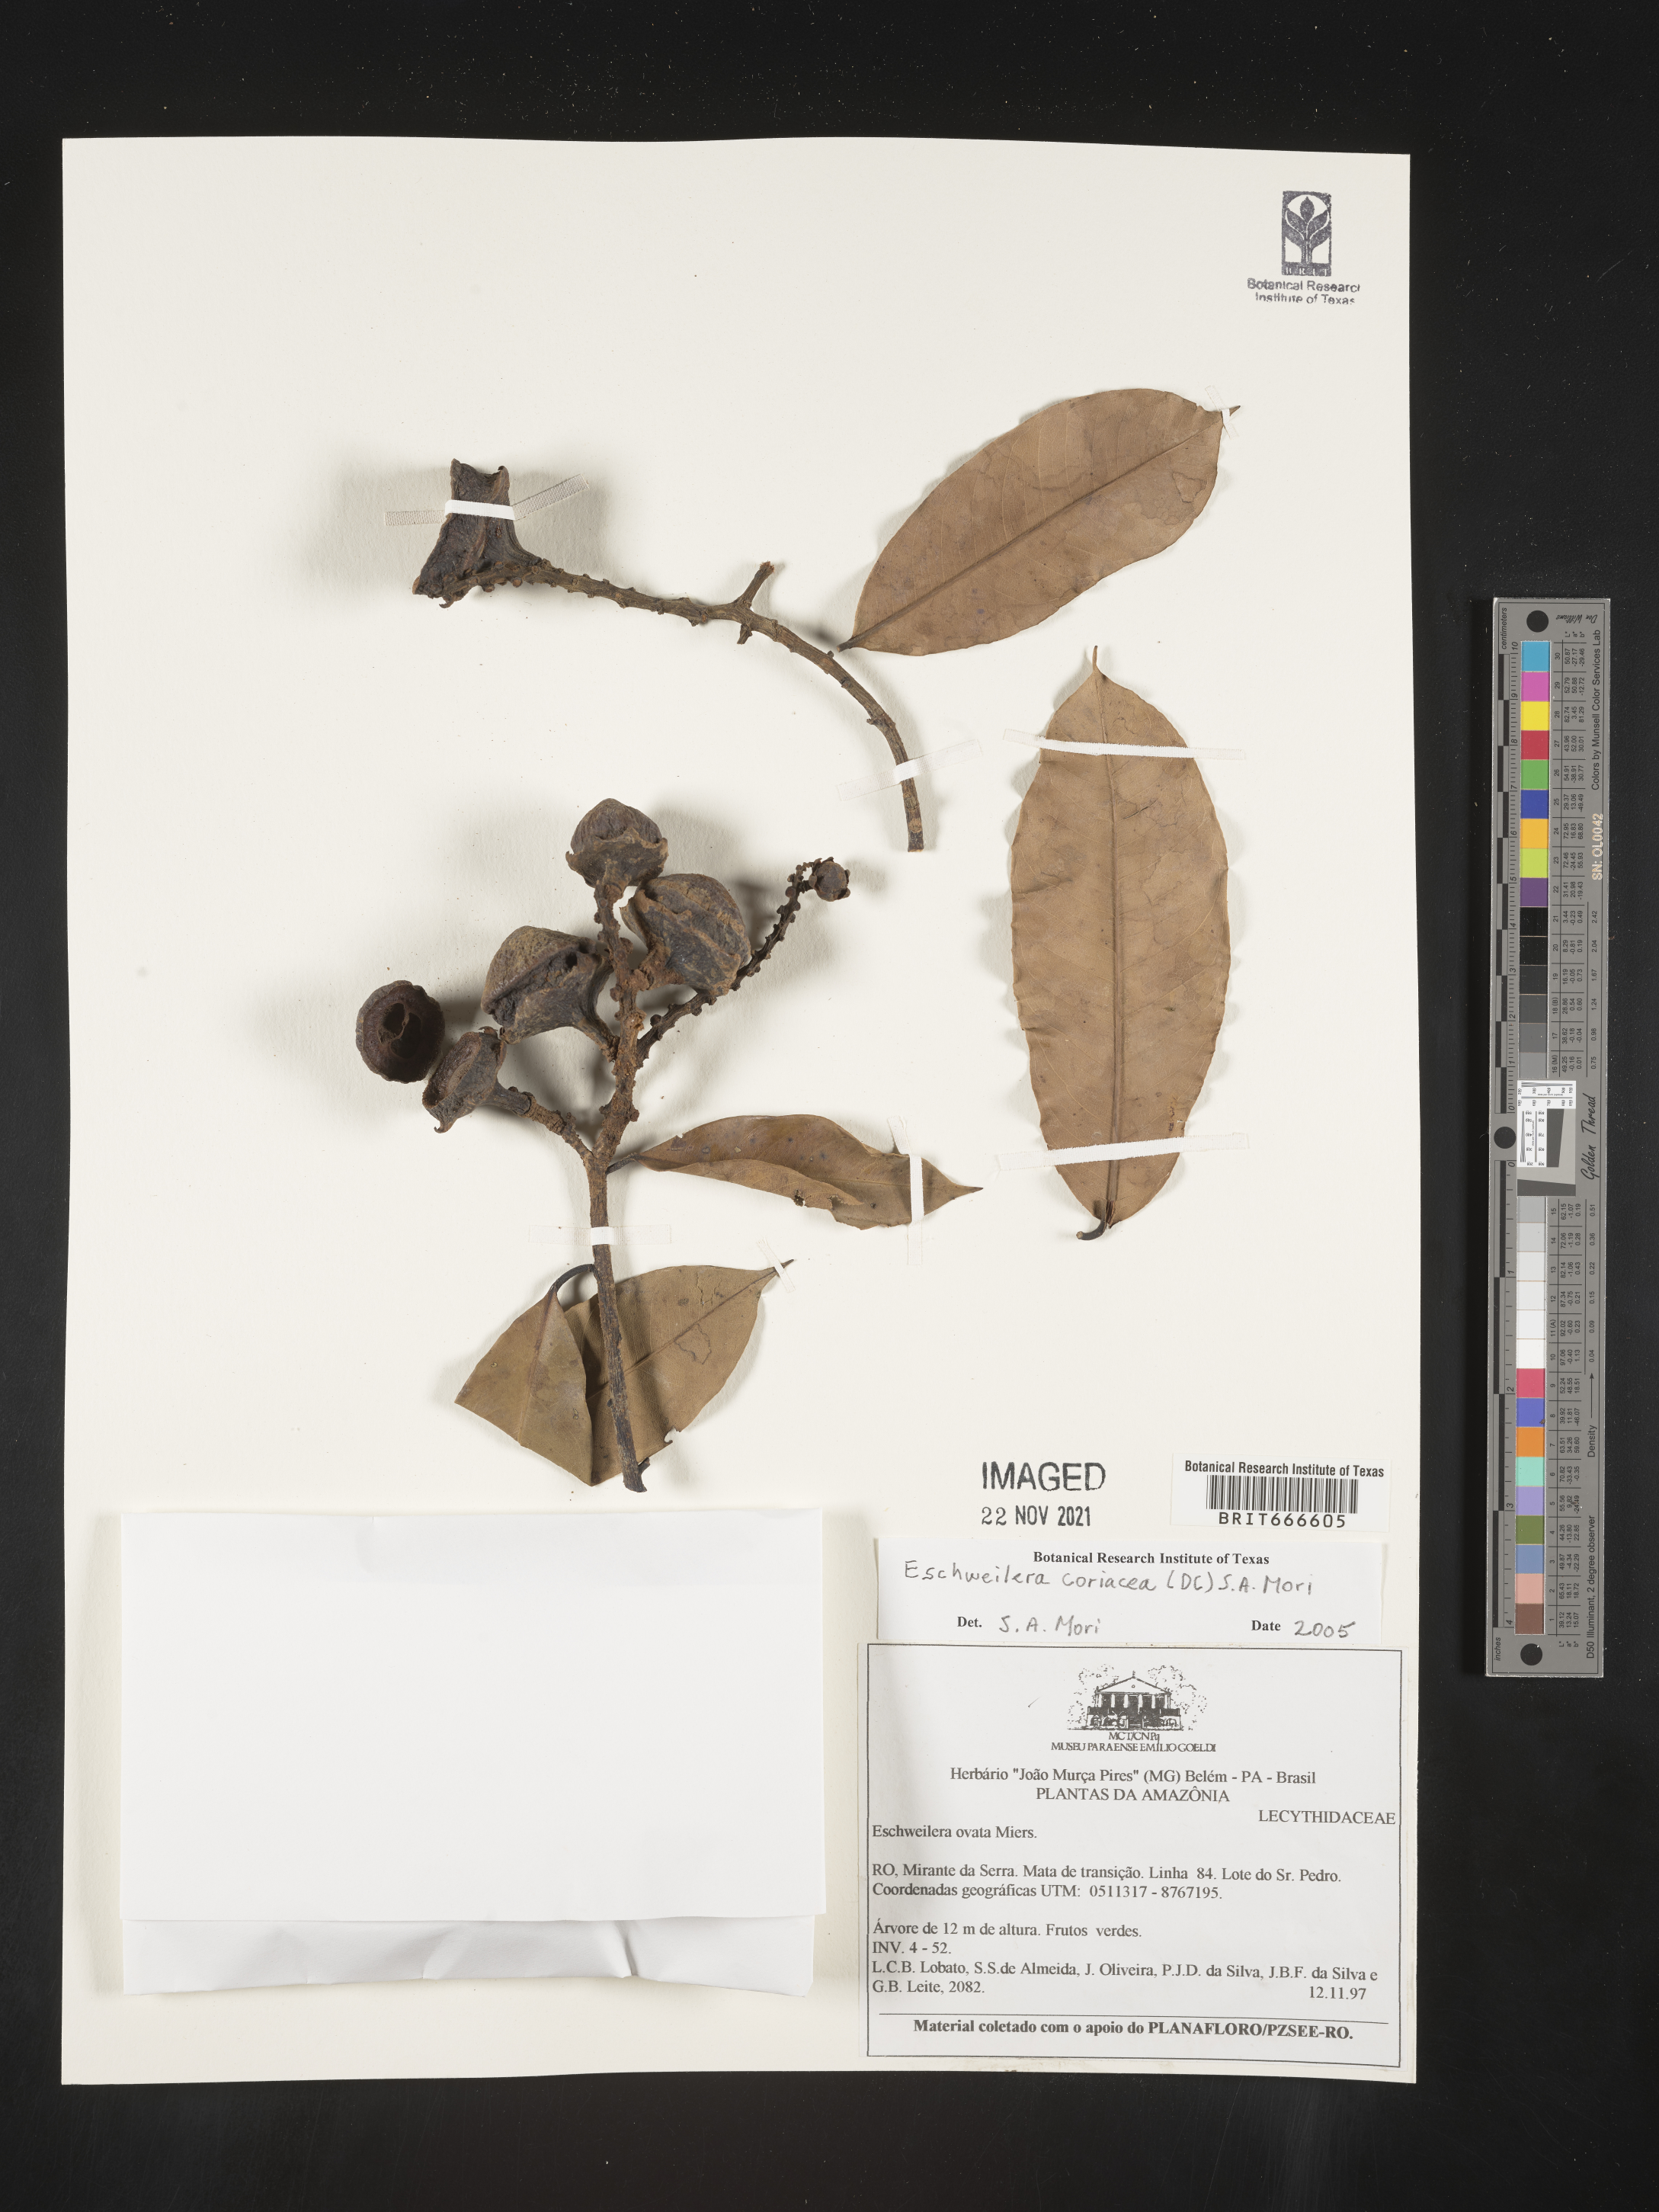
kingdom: Plantae
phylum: Tracheophyta
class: Magnoliopsida
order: Ericales
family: Lecythidaceae
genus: Eschweilera
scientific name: Eschweilera
